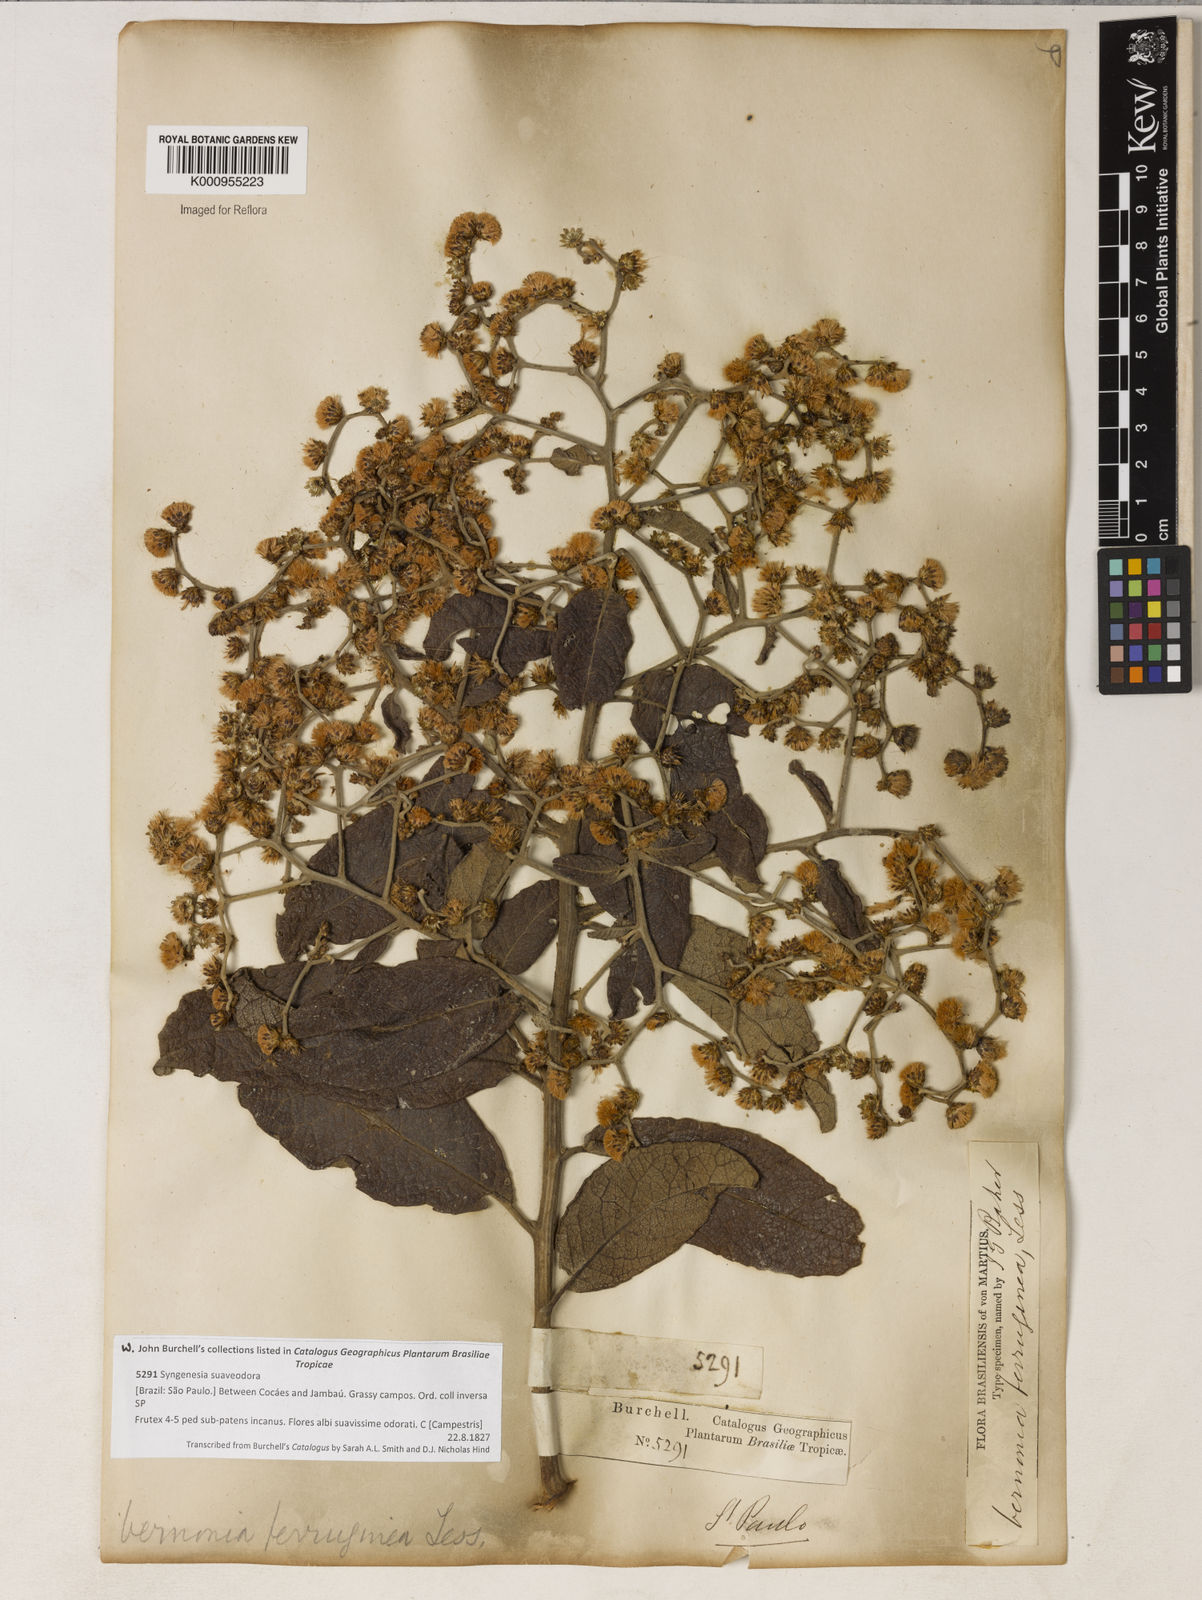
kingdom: Plantae
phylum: Tracheophyta
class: Magnoliopsida
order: Asterales
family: Asteraceae
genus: Vernonanthura
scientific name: Vernonanthura ferruginea
